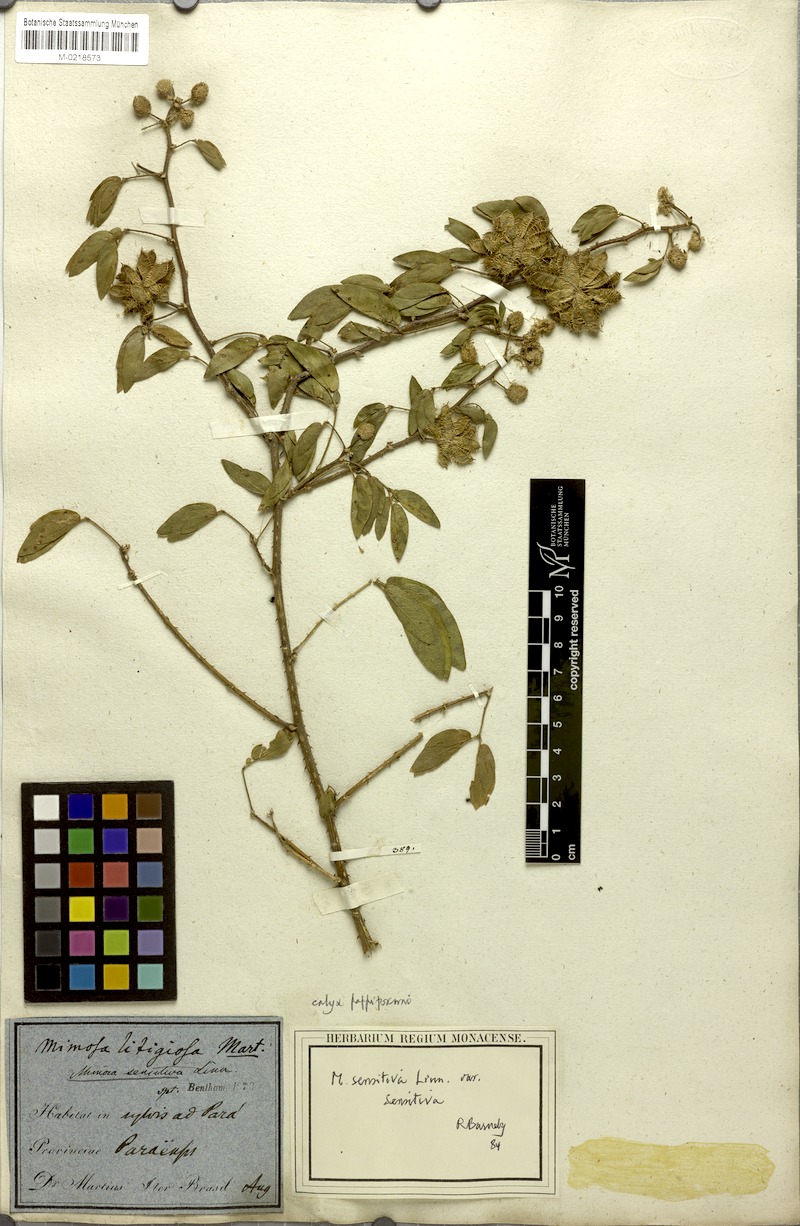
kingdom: Plantae
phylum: Tracheophyta
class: Magnoliopsida
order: Fabales
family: Fabaceae
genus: Mimosa
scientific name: Mimosa sensitiva
